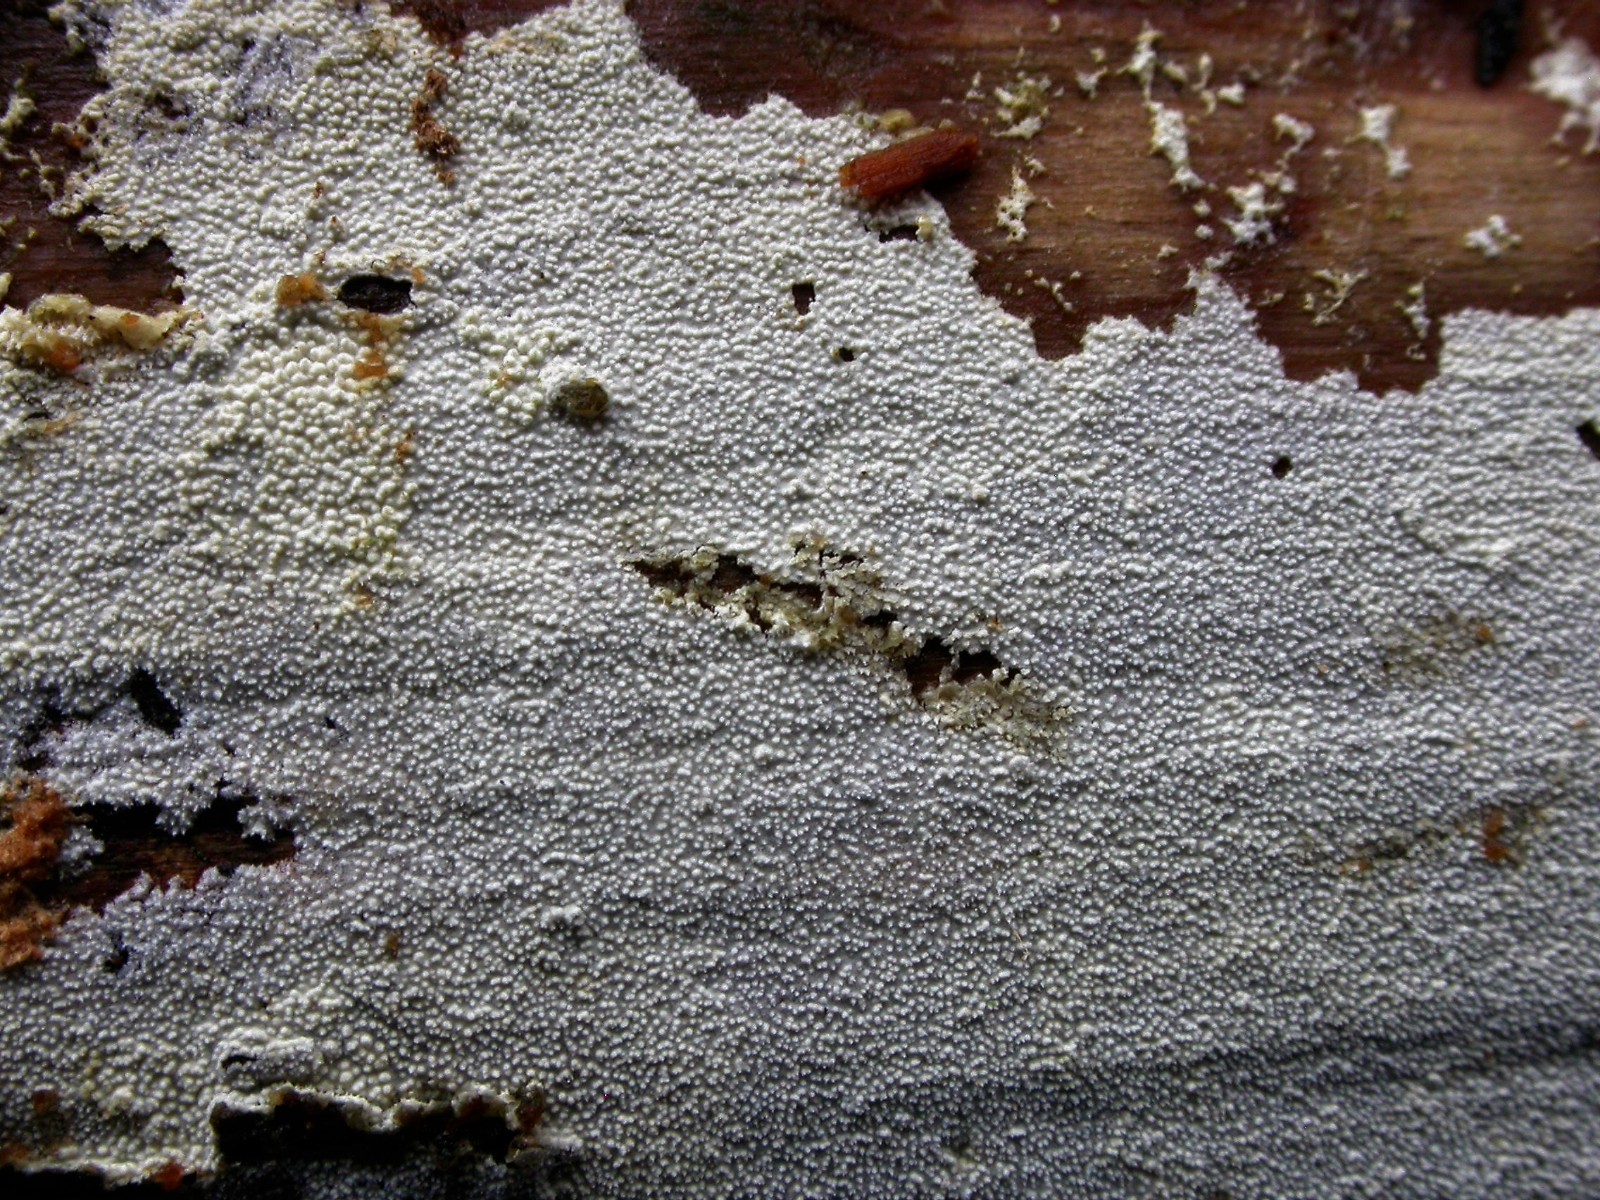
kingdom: Fungi
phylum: Basidiomycota
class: Agaricomycetes
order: Hymenochaetales
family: Schizoporaceae
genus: Xylodon
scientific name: Xylodon nesporii
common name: fintandet tandsvamp
